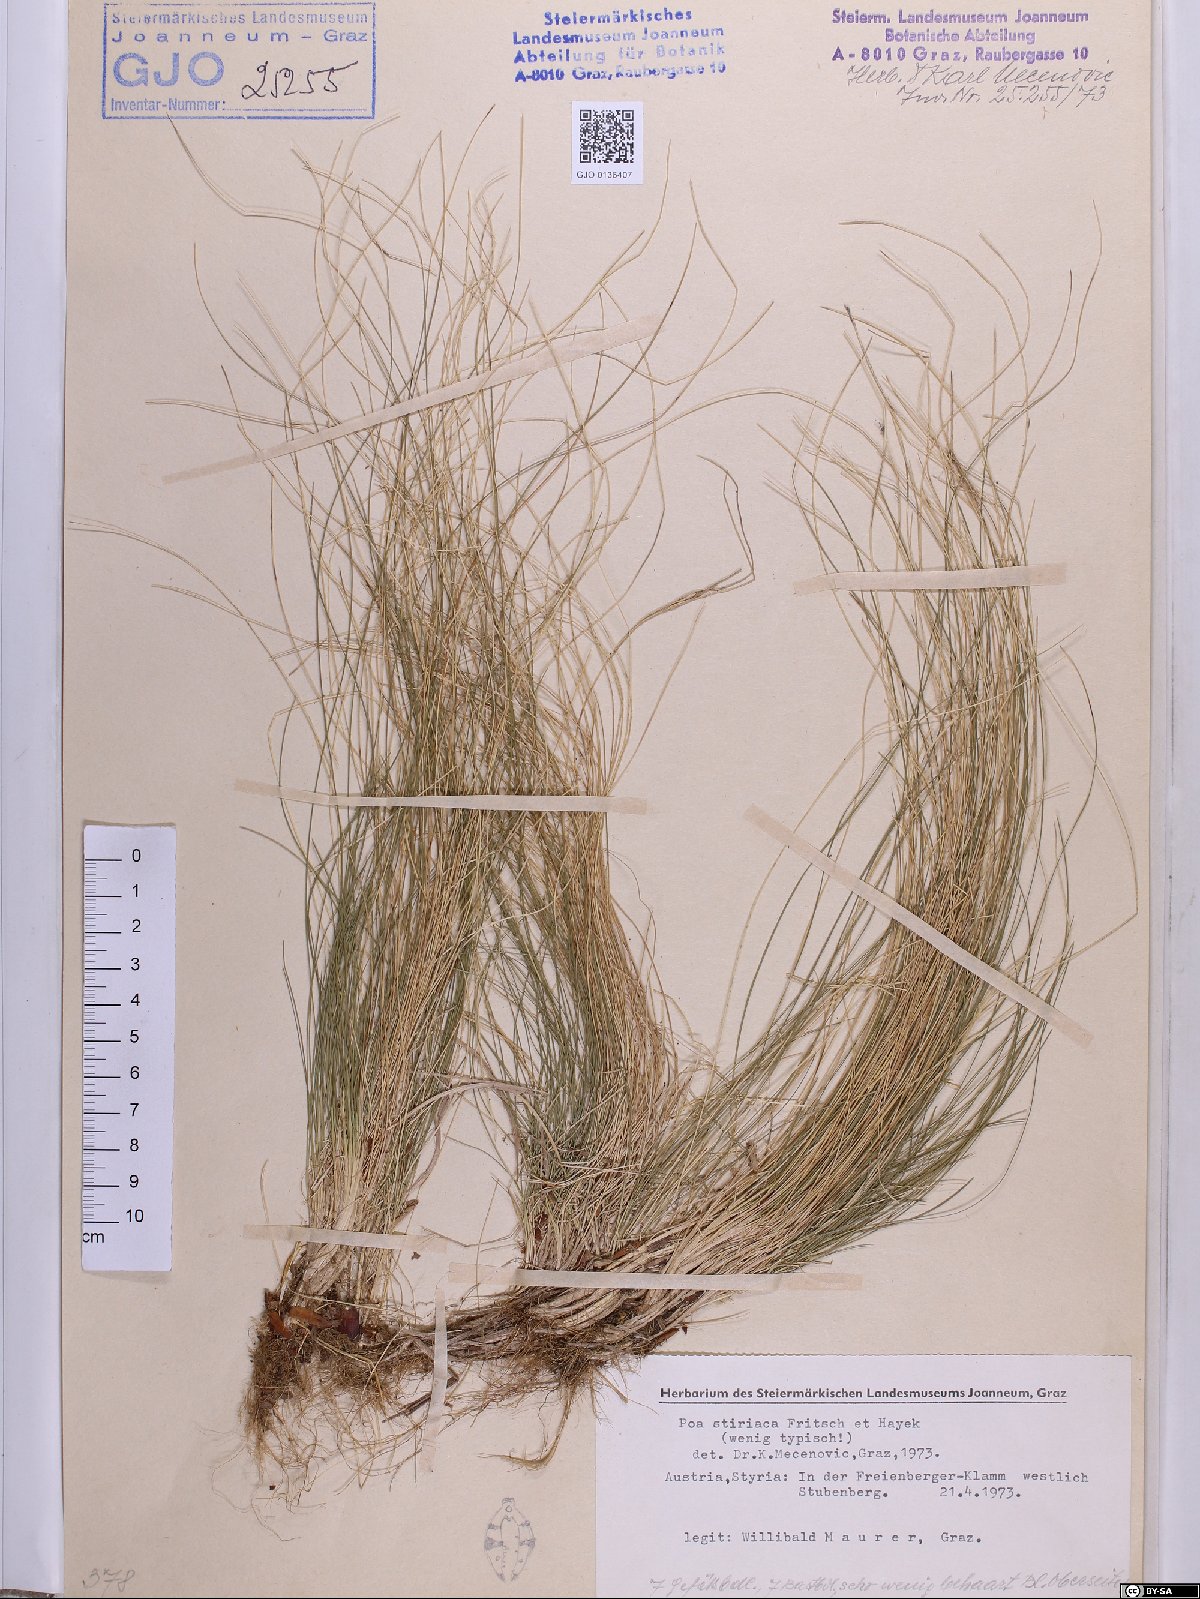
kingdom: Plantae
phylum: Tracheophyta
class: Liliopsida
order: Poales
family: Poaceae
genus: Poa
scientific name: Poa stiriaca
